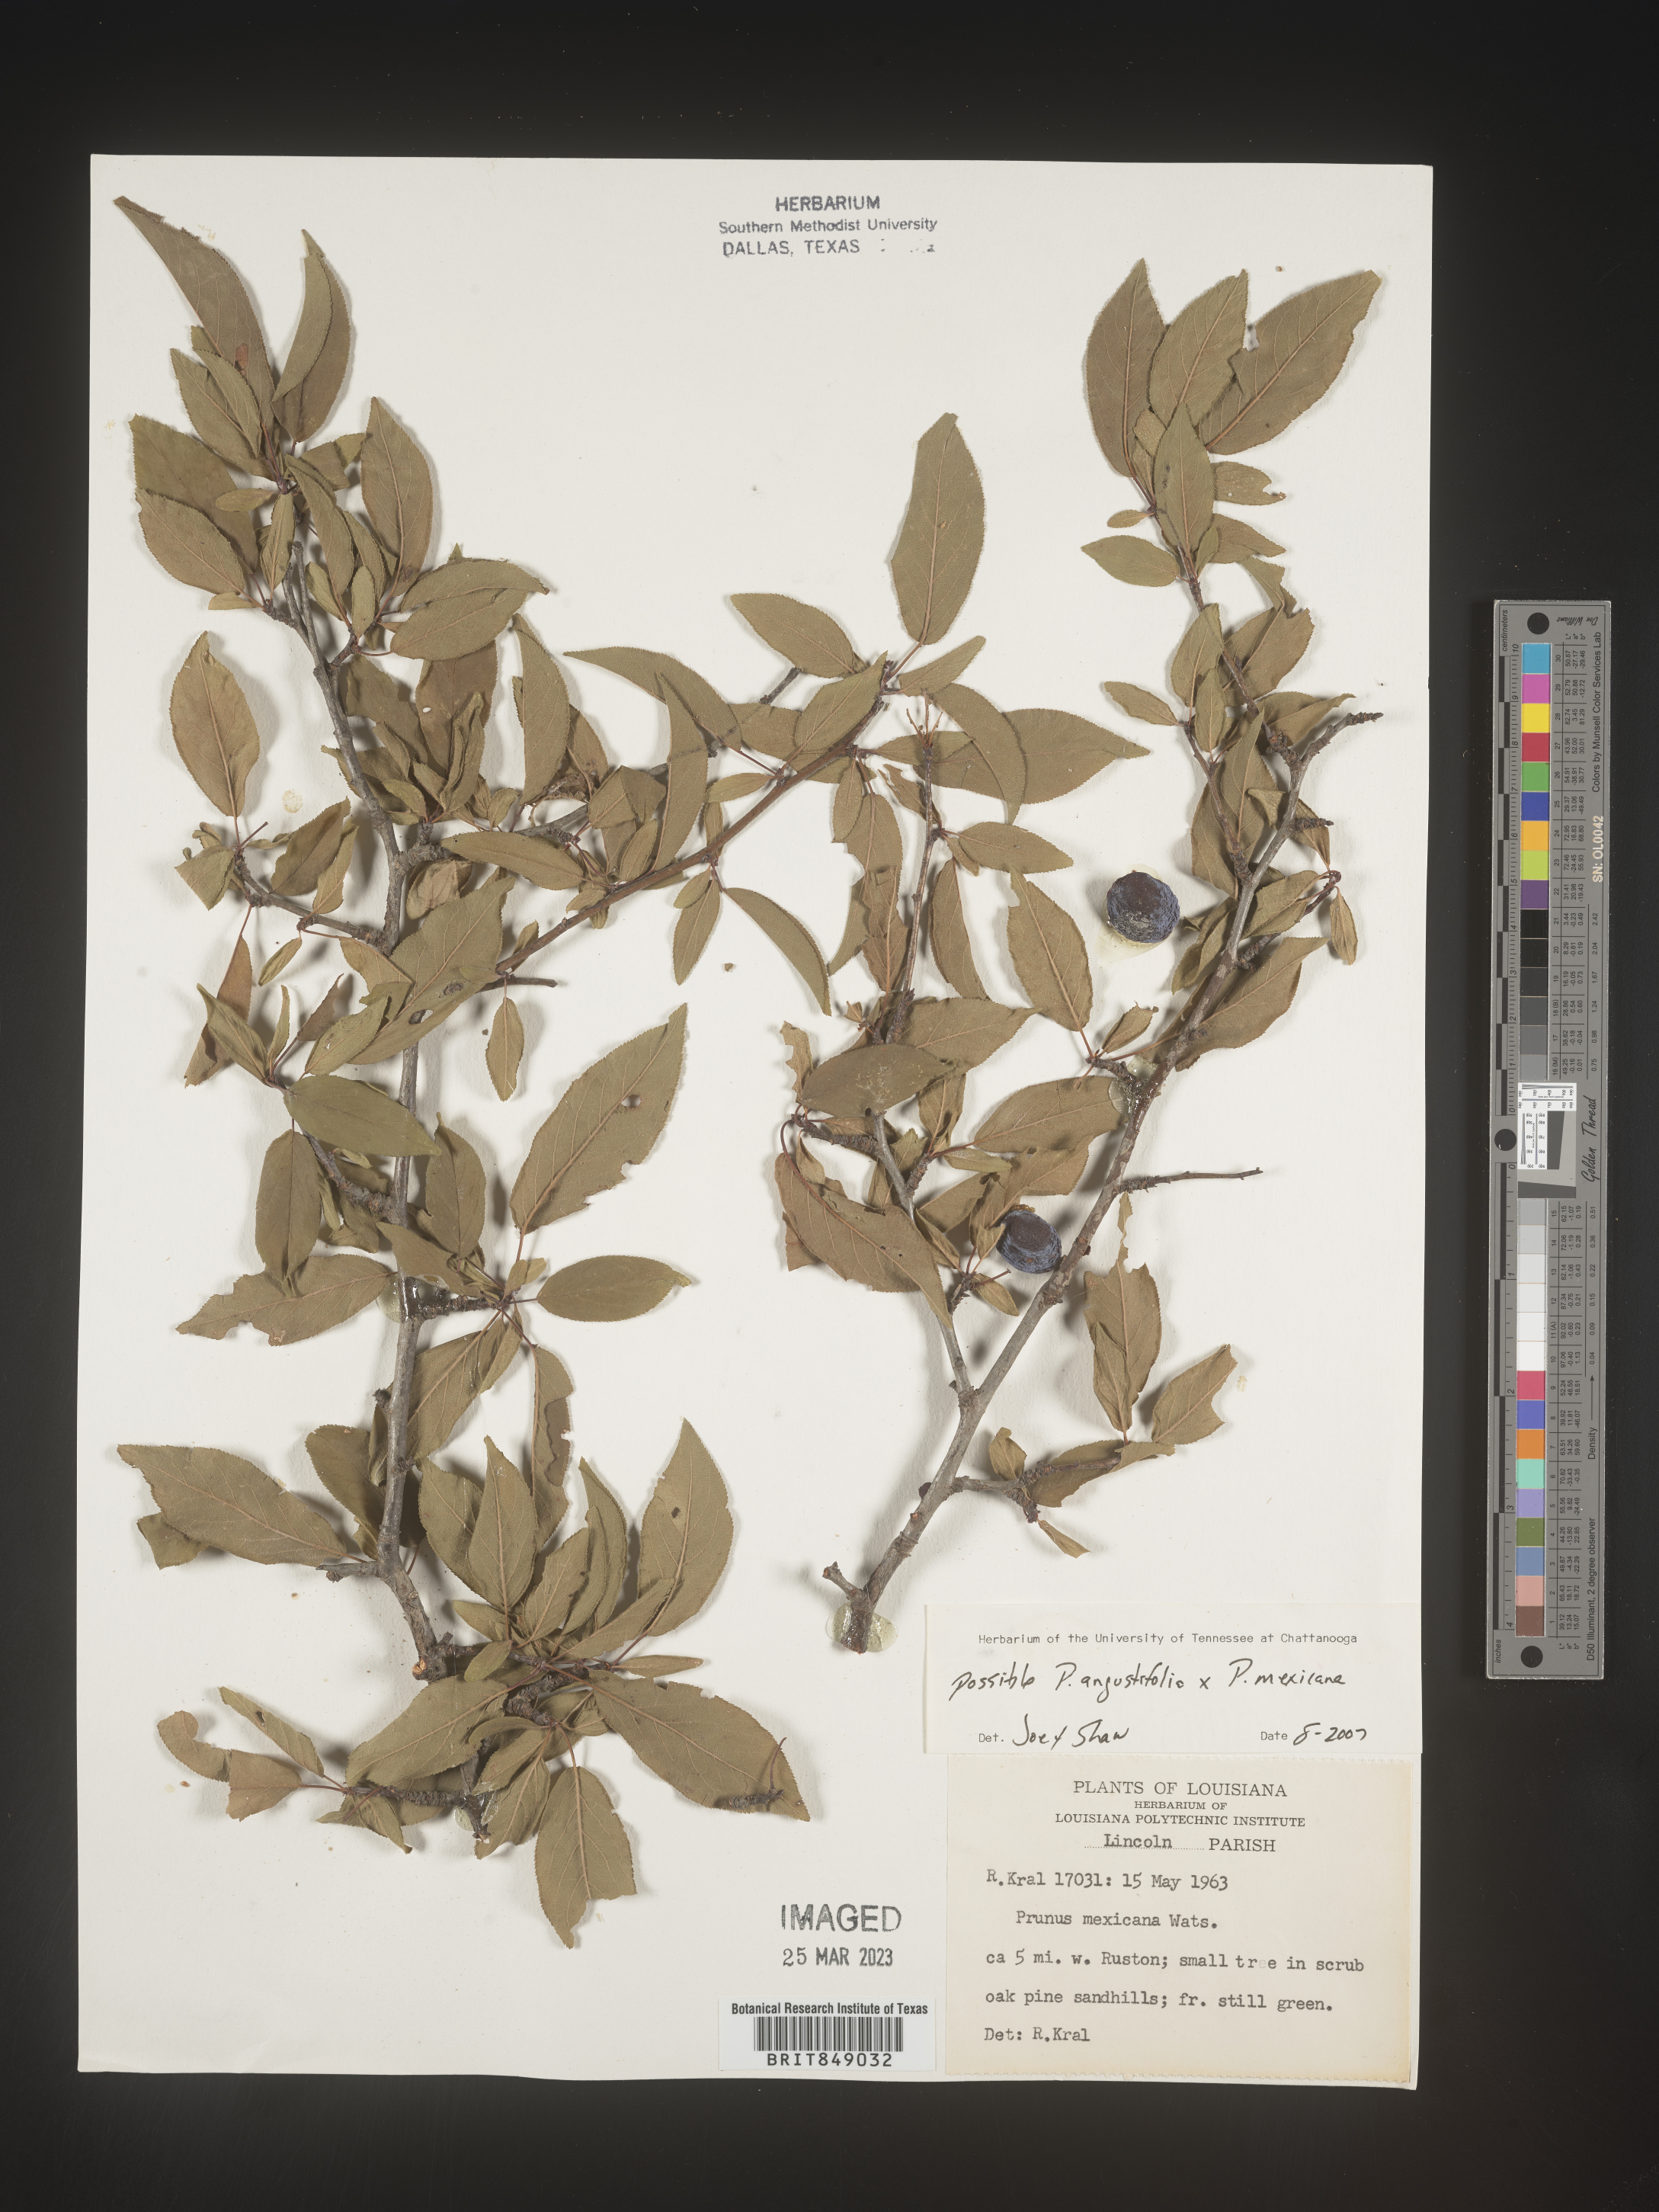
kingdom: Plantae
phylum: Tracheophyta
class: Magnoliopsida
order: Rosales
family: Rosaceae
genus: Prunus
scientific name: Prunus angustifolia
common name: Cherokee plum
